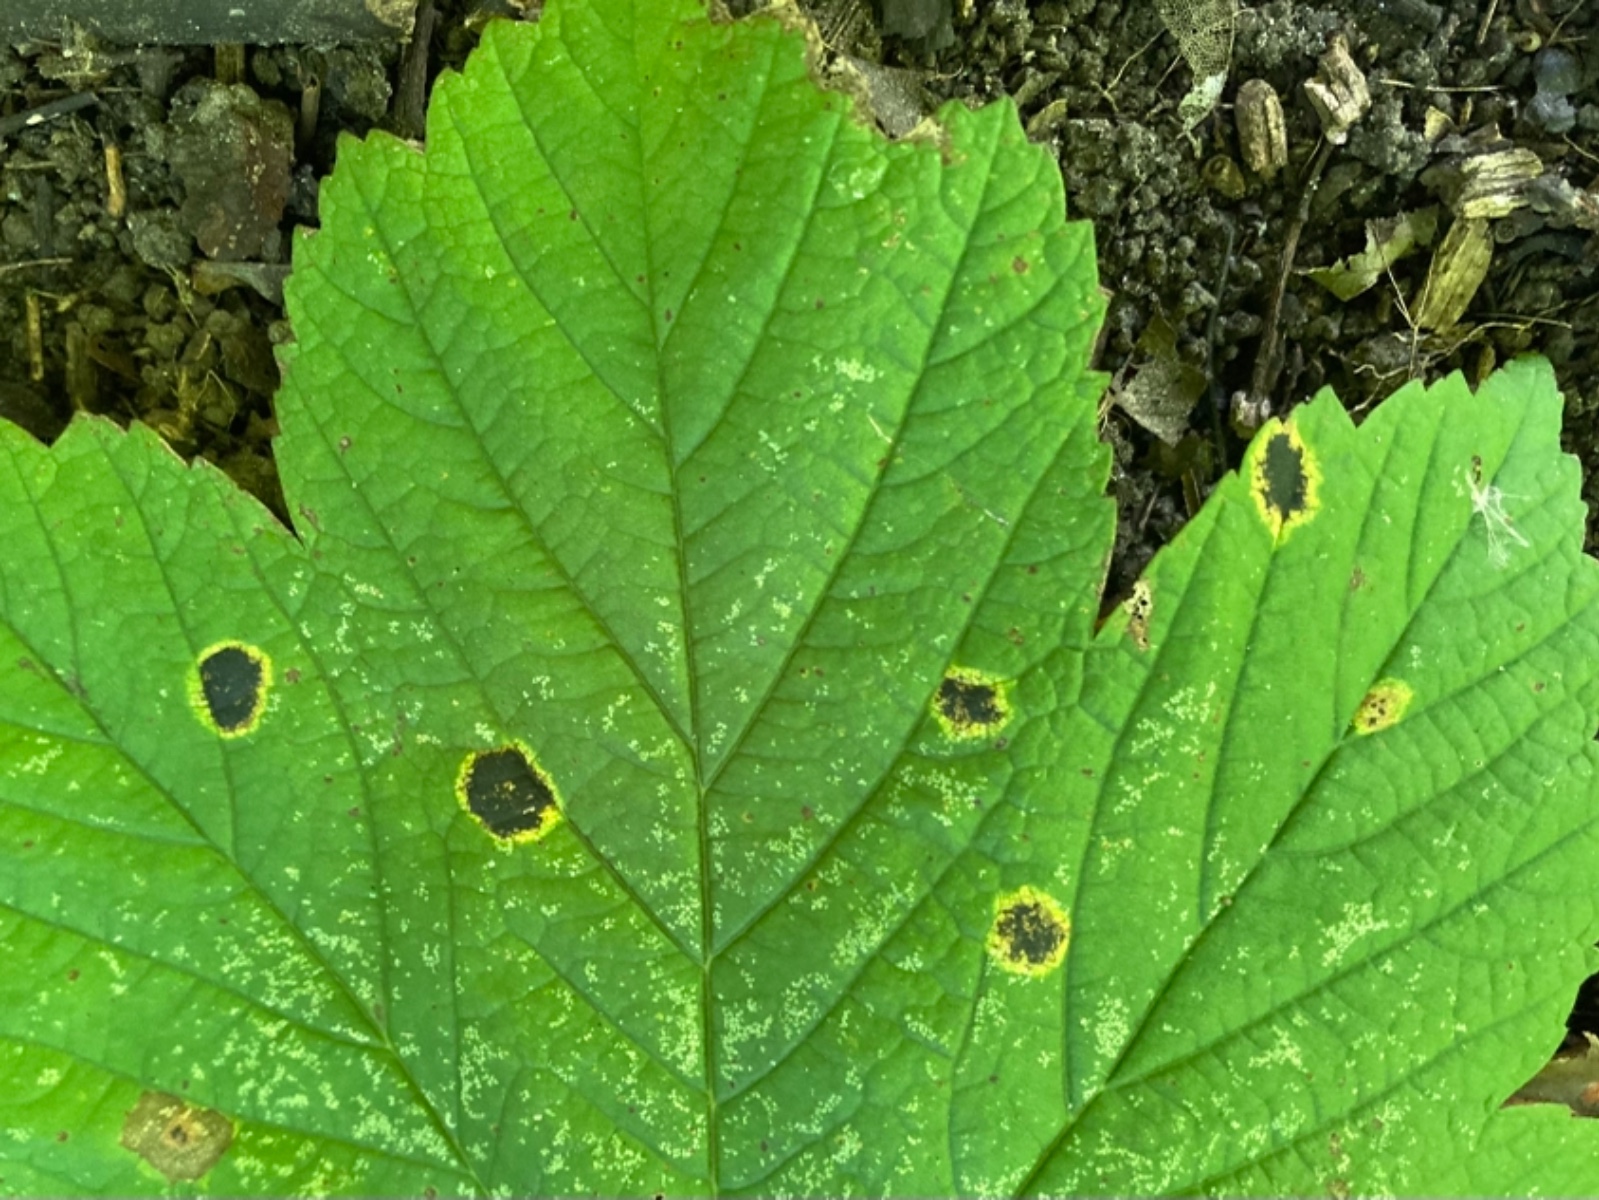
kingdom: Fungi
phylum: Ascomycota
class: Leotiomycetes
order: Rhytismatales
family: Rhytismataceae
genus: Rhytisma
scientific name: Rhytisma acerinum
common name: ahorn-rynkeplet
